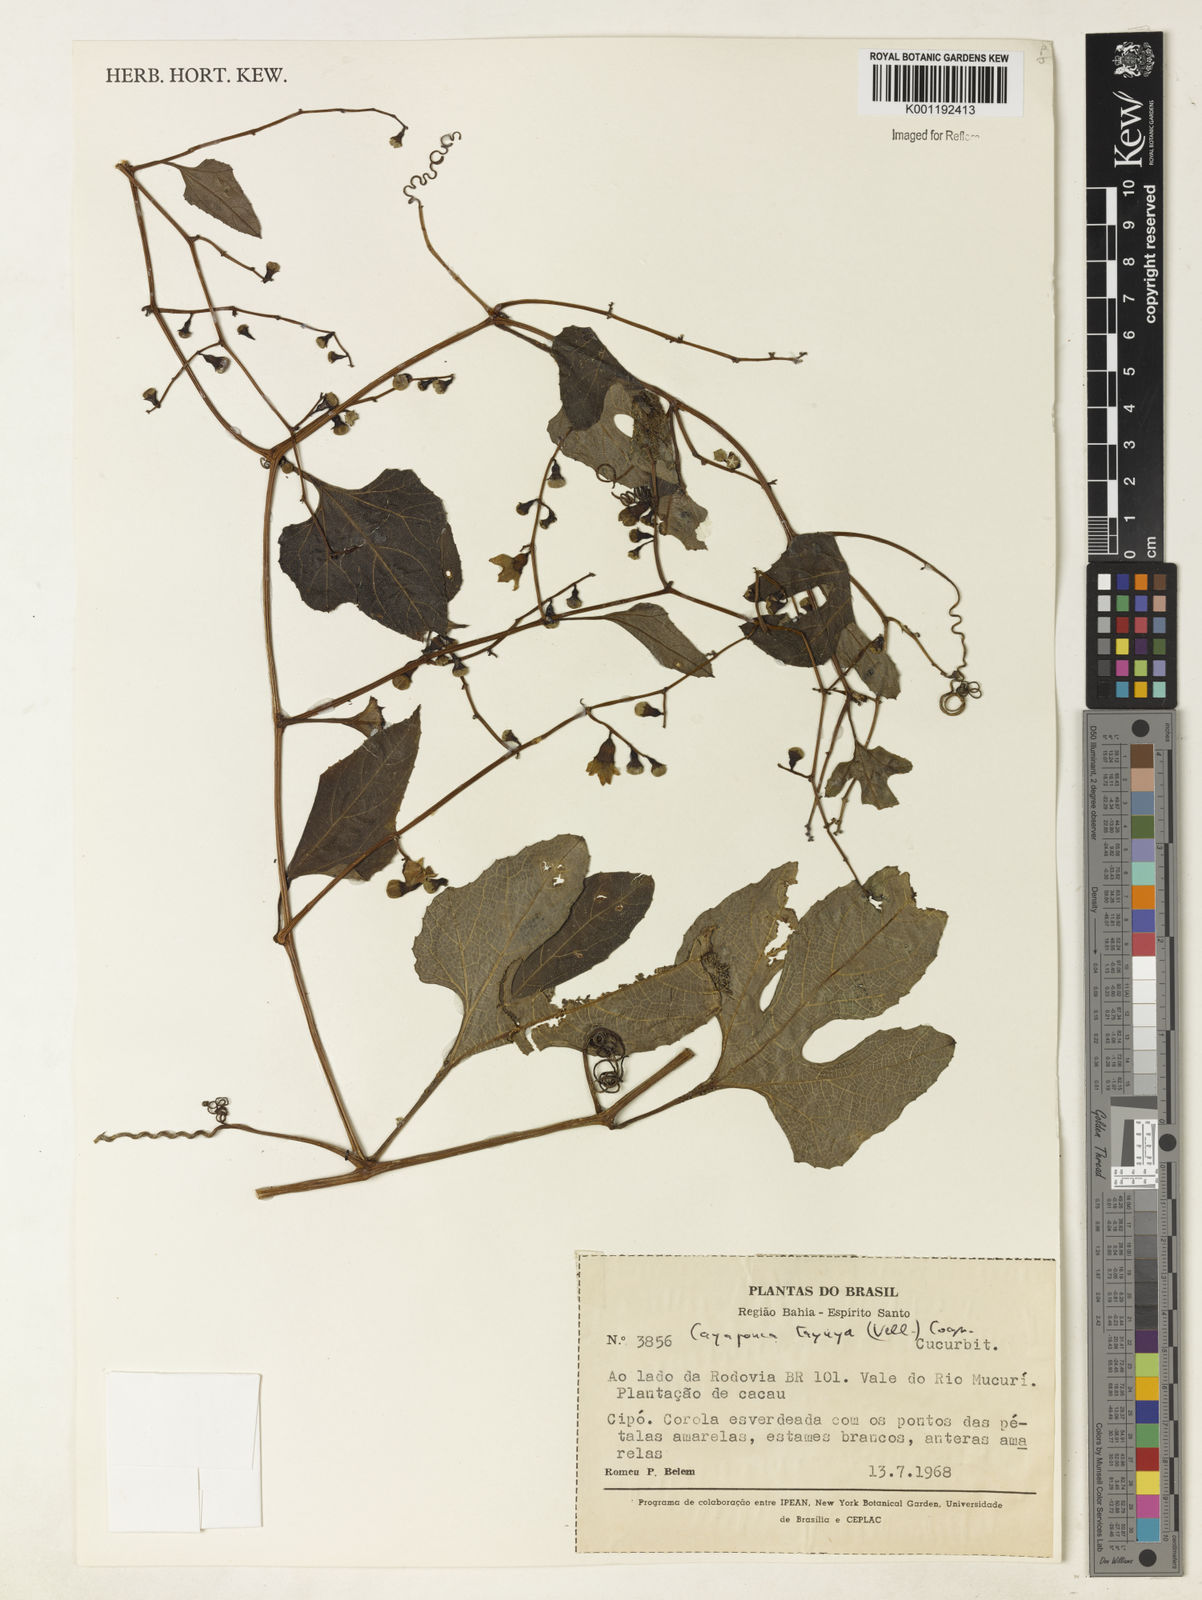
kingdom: Plantae
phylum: Tracheophyta
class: Magnoliopsida
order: Cucurbitales
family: Cucurbitaceae
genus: Cayaponia
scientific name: Cayaponia tayuya
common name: Tayuya
